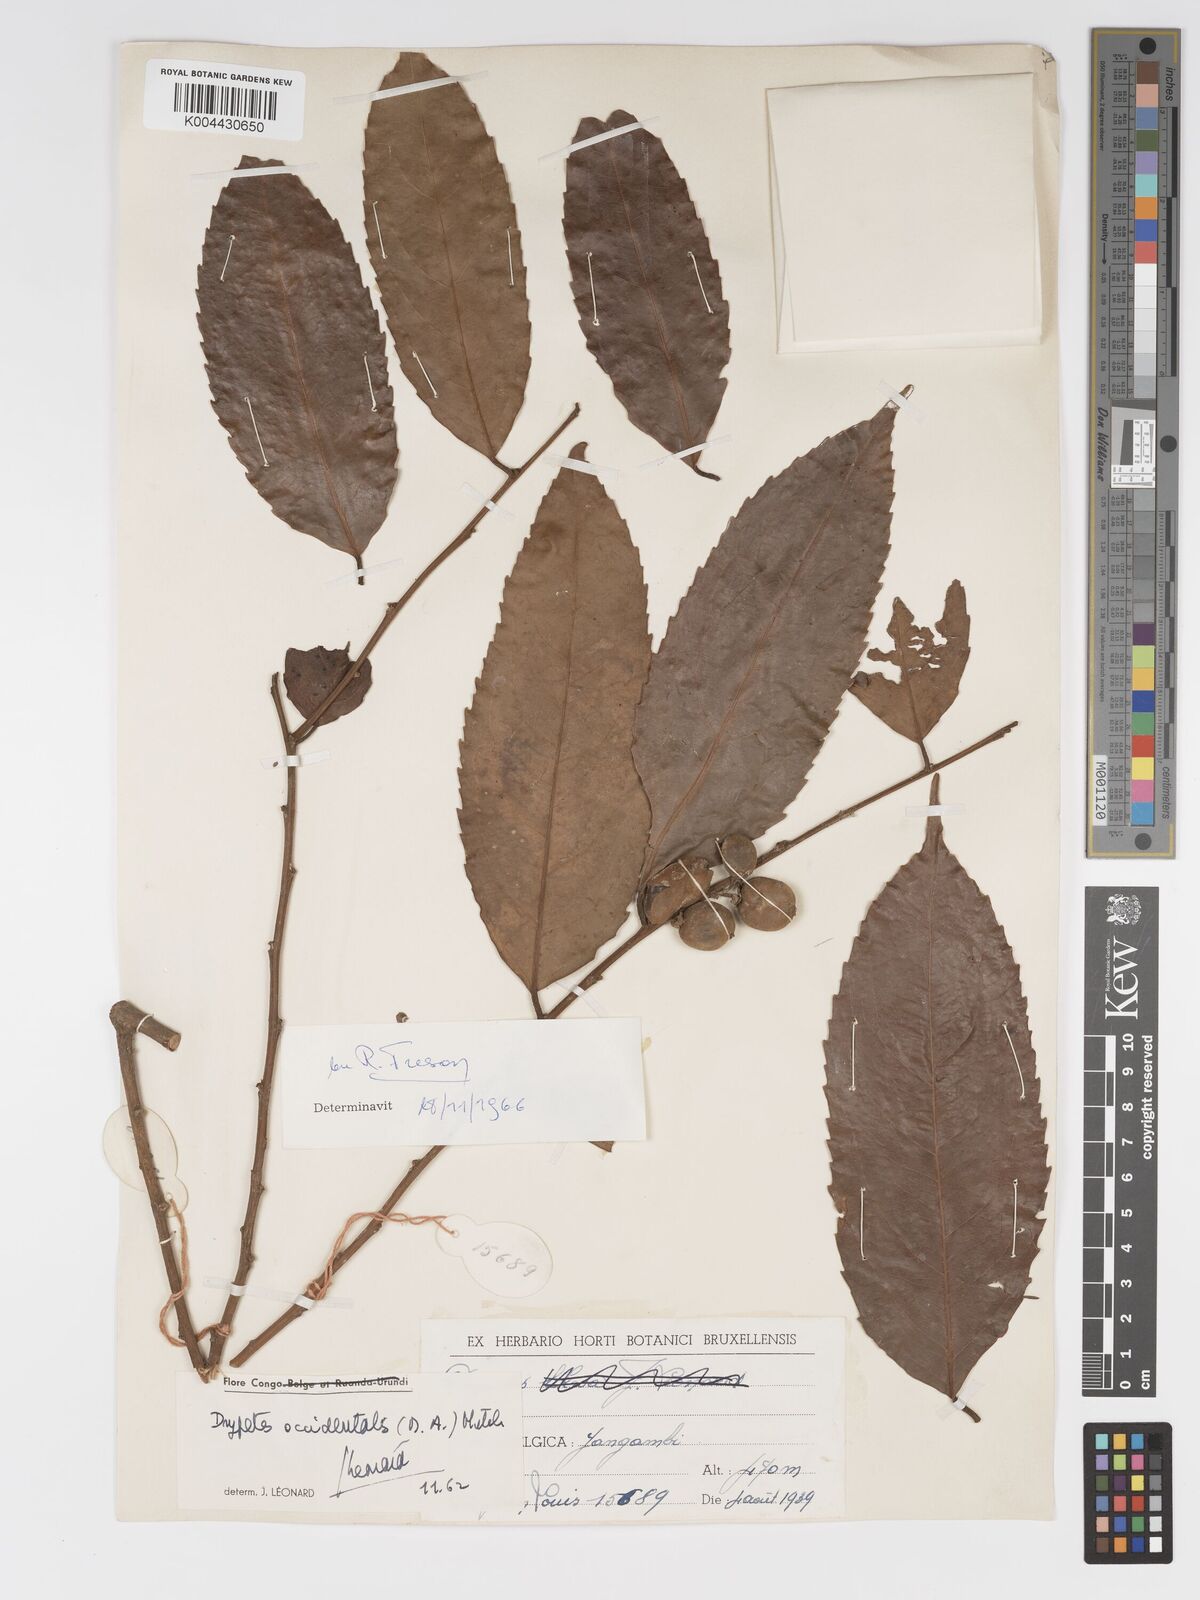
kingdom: Plantae
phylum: Tracheophyta
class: Magnoliopsida
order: Malpighiales
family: Putranjivaceae
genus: Drypetes
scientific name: Drypetes occidentalis
